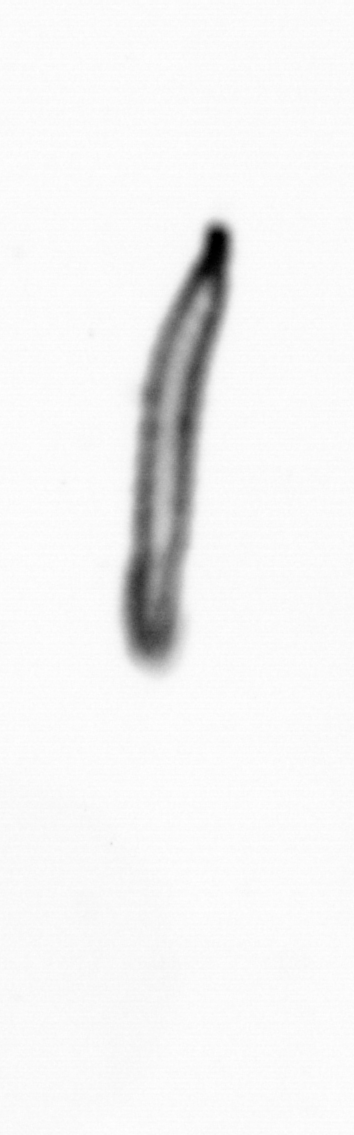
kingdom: Animalia
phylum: Annelida
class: Polychaeta
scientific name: Polychaeta
